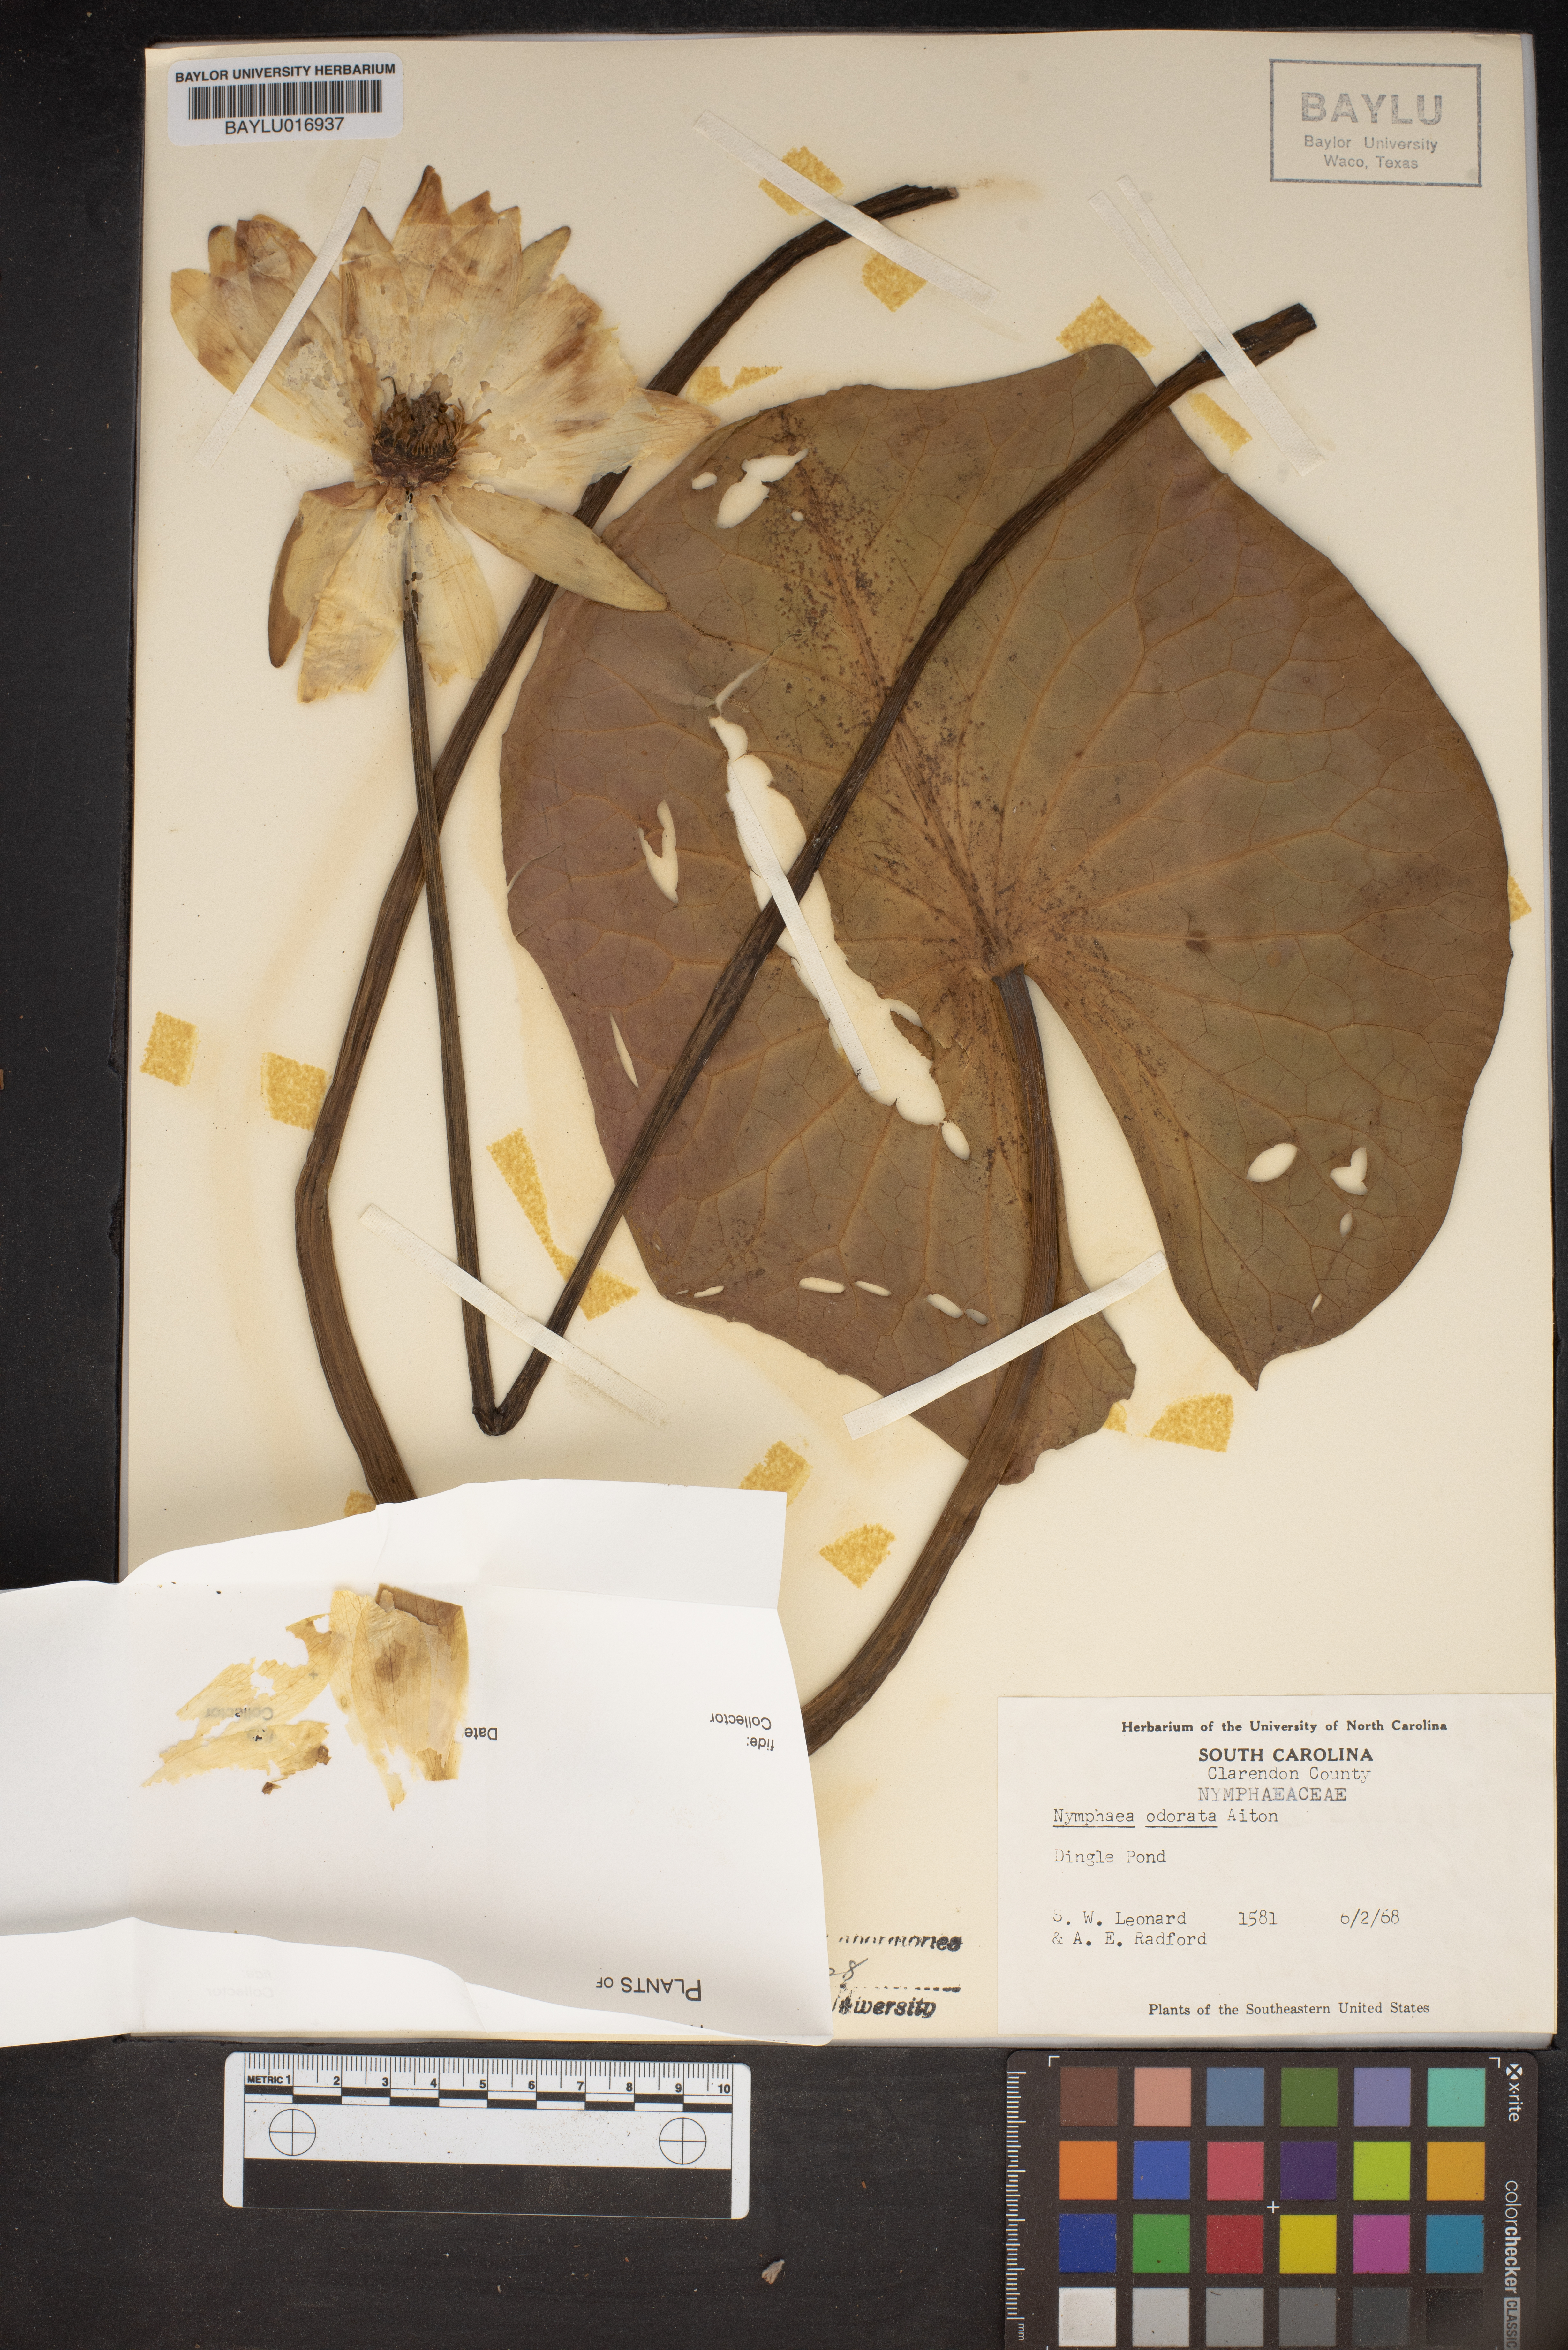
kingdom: Plantae
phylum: Tracheophyta
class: Magnoliopsida
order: Nymphaeales
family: Nymphaeaceae
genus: Nymphaea
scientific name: Nymphaea odorata
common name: Fragrant water-lily
